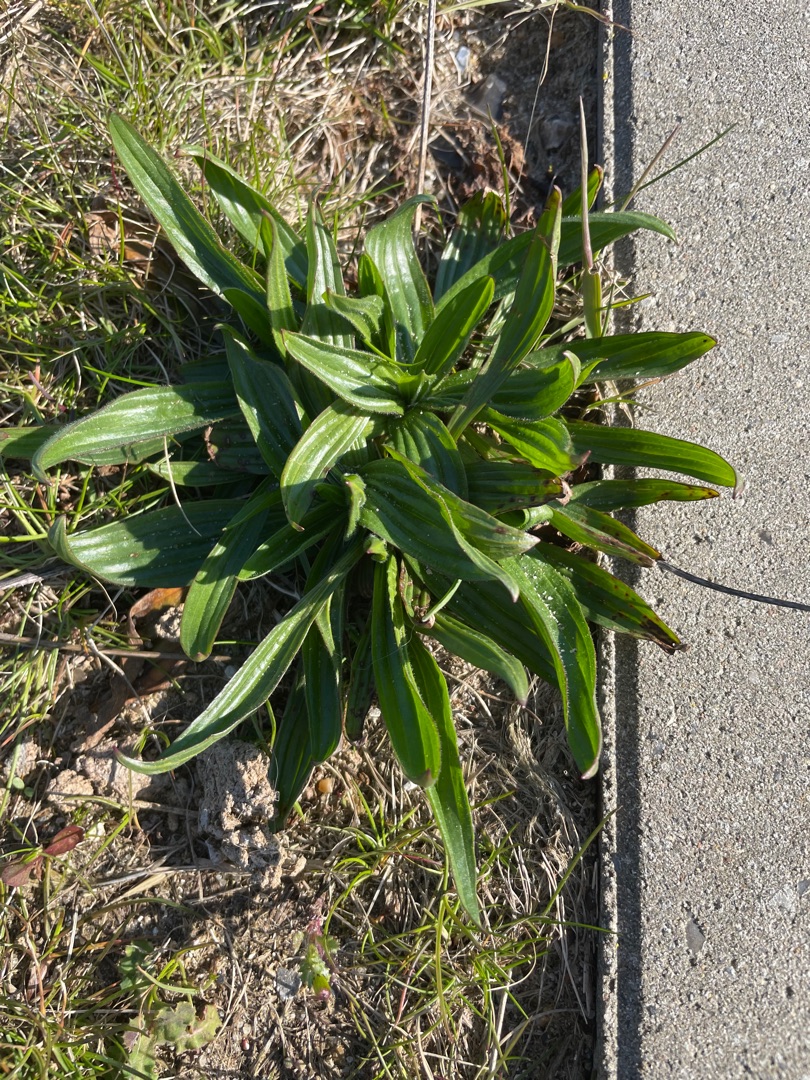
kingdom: Plantae
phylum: Tracheophyta
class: Magnoliopsida
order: Lamiales
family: Plantaginaceae
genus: Plantago
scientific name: Plantago lanceolata
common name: Lancet-vejbred
